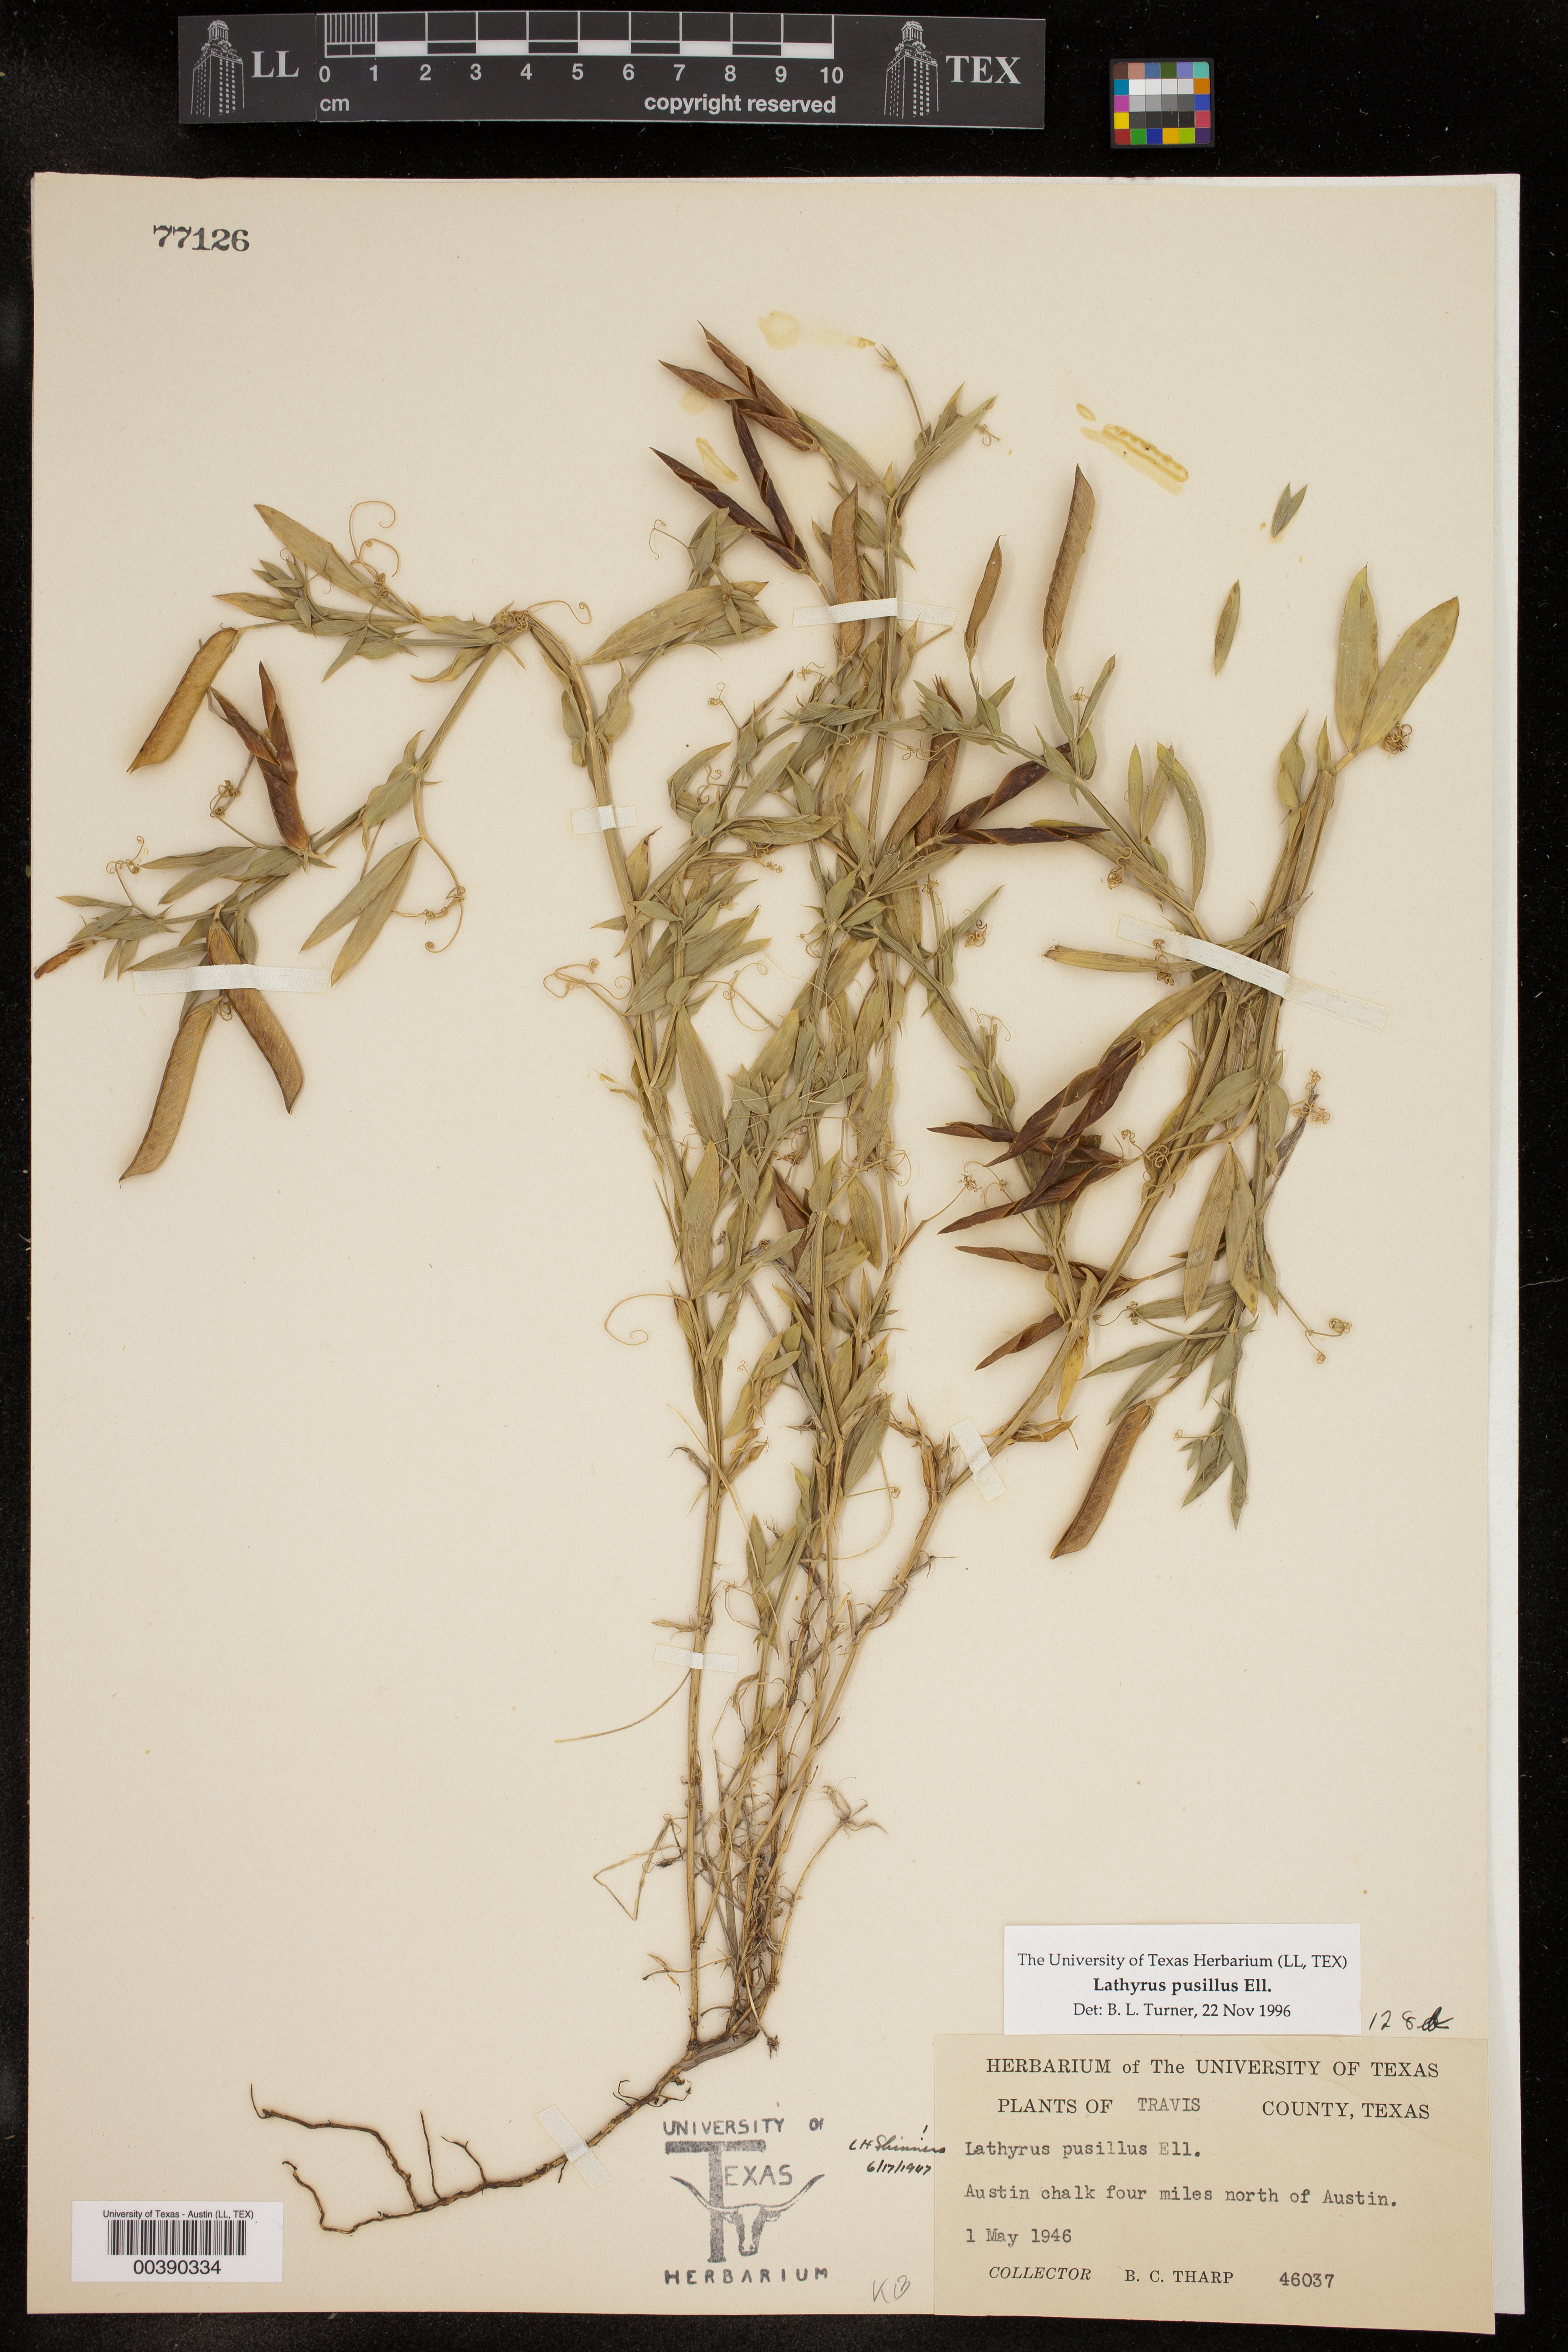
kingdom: Plantae
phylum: Tracheophyta
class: Magnoliopsida
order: Fabales
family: Fabaceae
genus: Lathyrus
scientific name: Lathyrus pusillus
